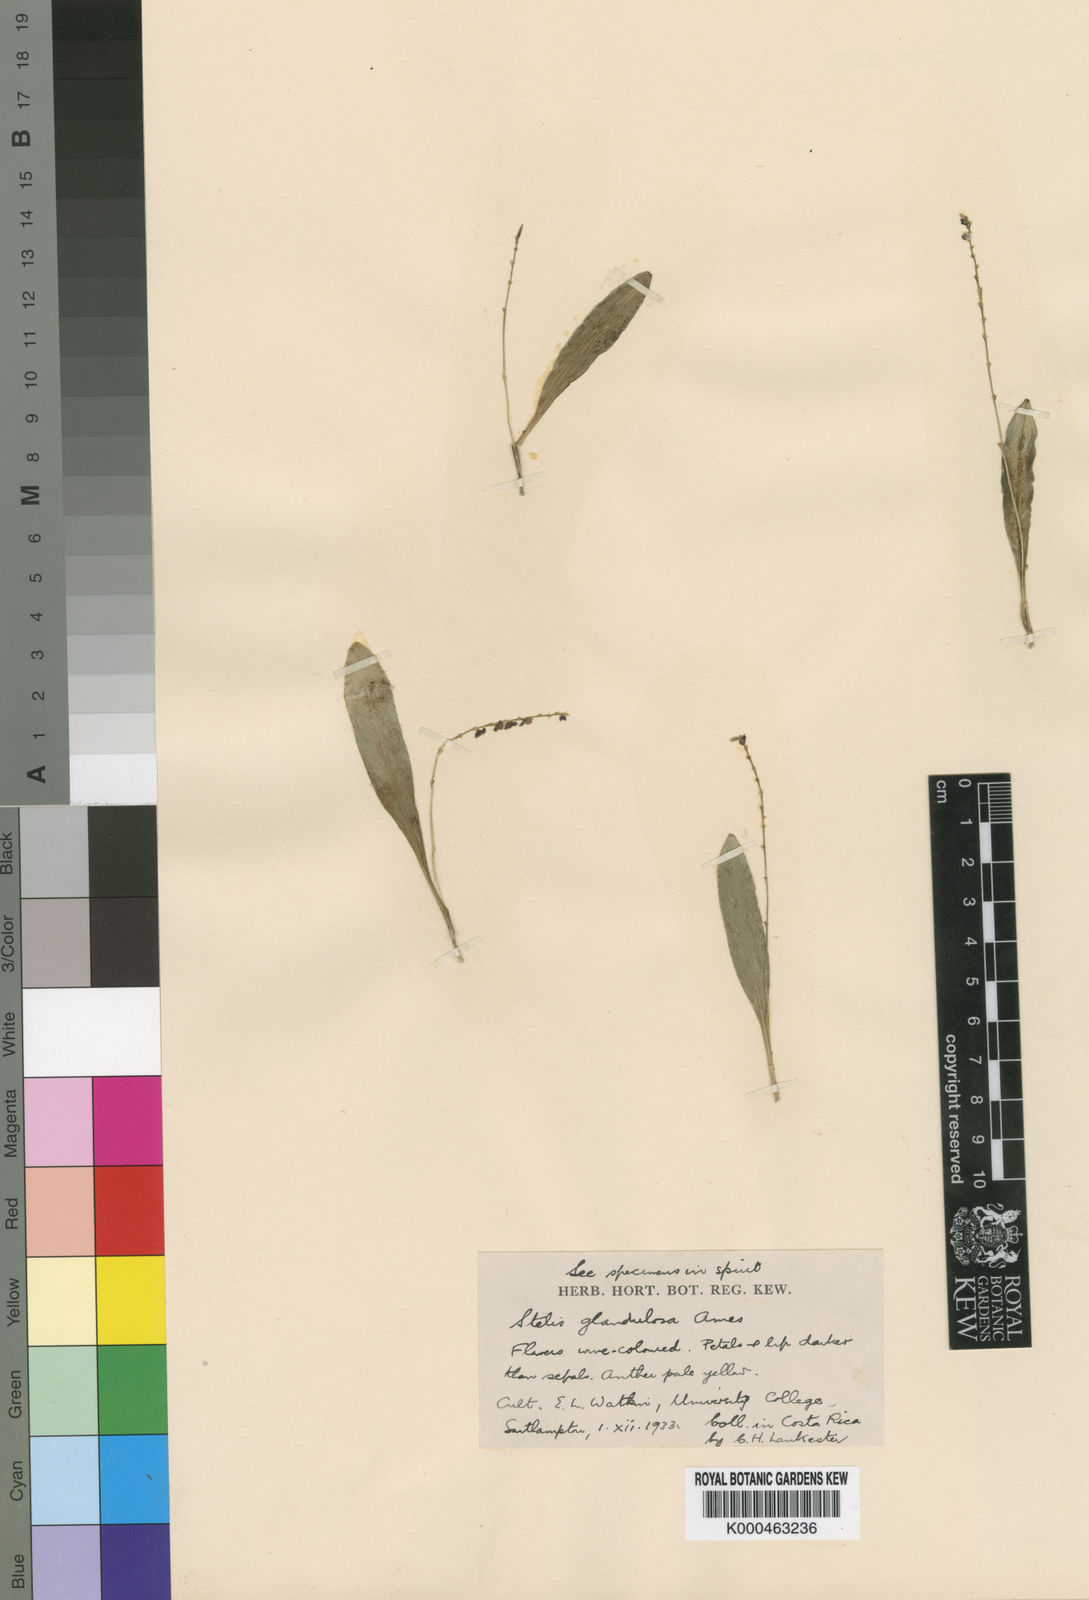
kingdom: Plantae
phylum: Tracheophyta
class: Liliopsida
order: Asparagales
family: Orchidaceae
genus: Stelis
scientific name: Stelis argentata
